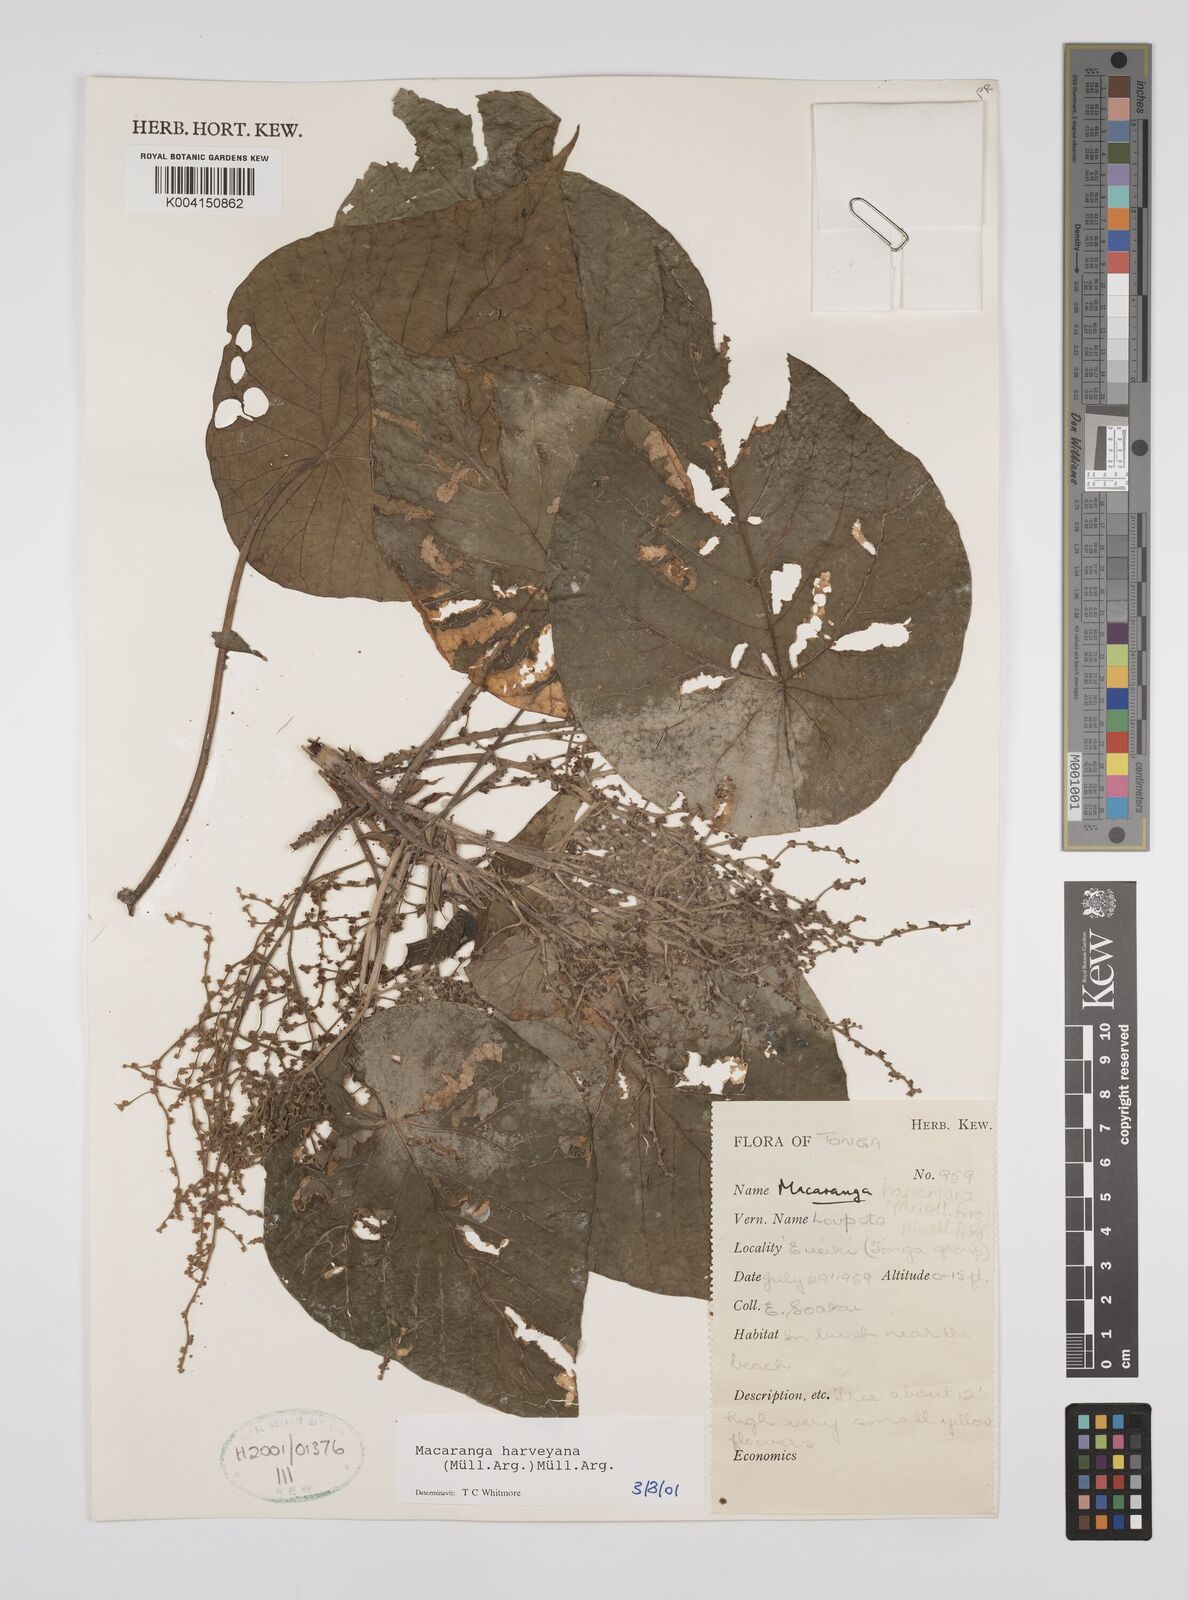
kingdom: Plantae
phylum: Tracheophyta
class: Magnoliopsida
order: Malpighiales
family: Euphorbiaceae
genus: Macaranga
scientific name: Macaranga harveyana
